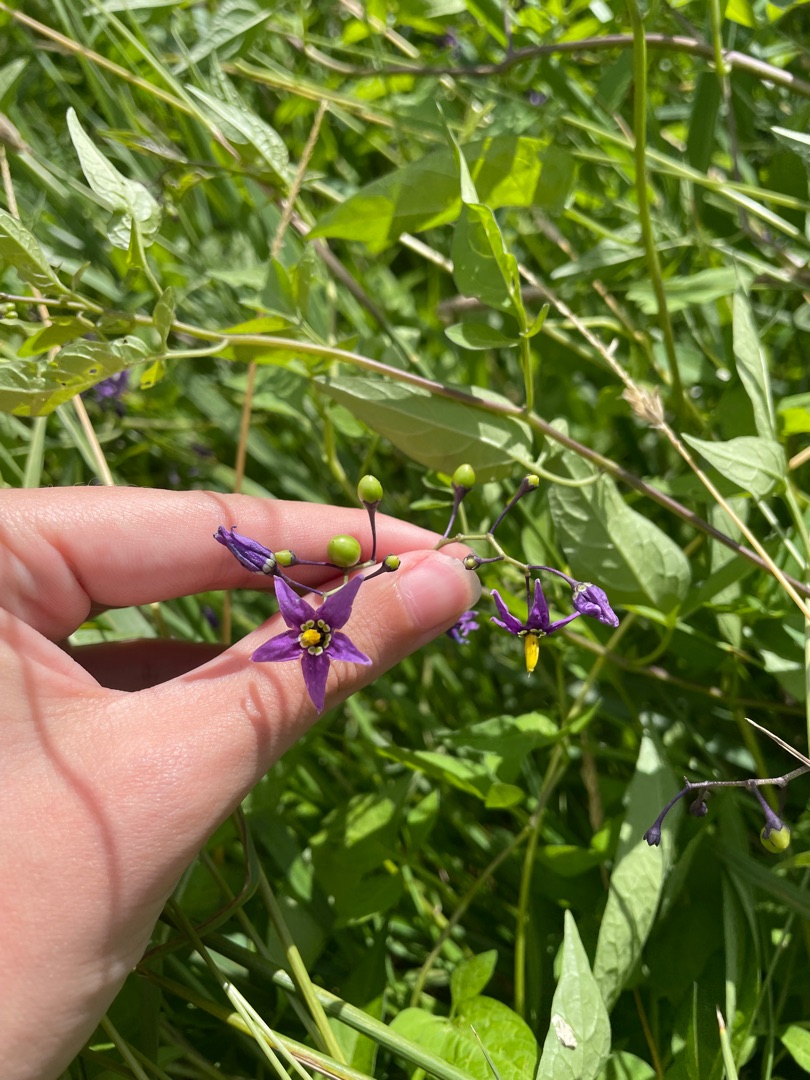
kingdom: Plantae
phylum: Tracheophyta
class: Magnoliopsida
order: Solanales
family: Solanaceae
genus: Solanum
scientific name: Solanum dulcamara
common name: Bittersød natskygge
